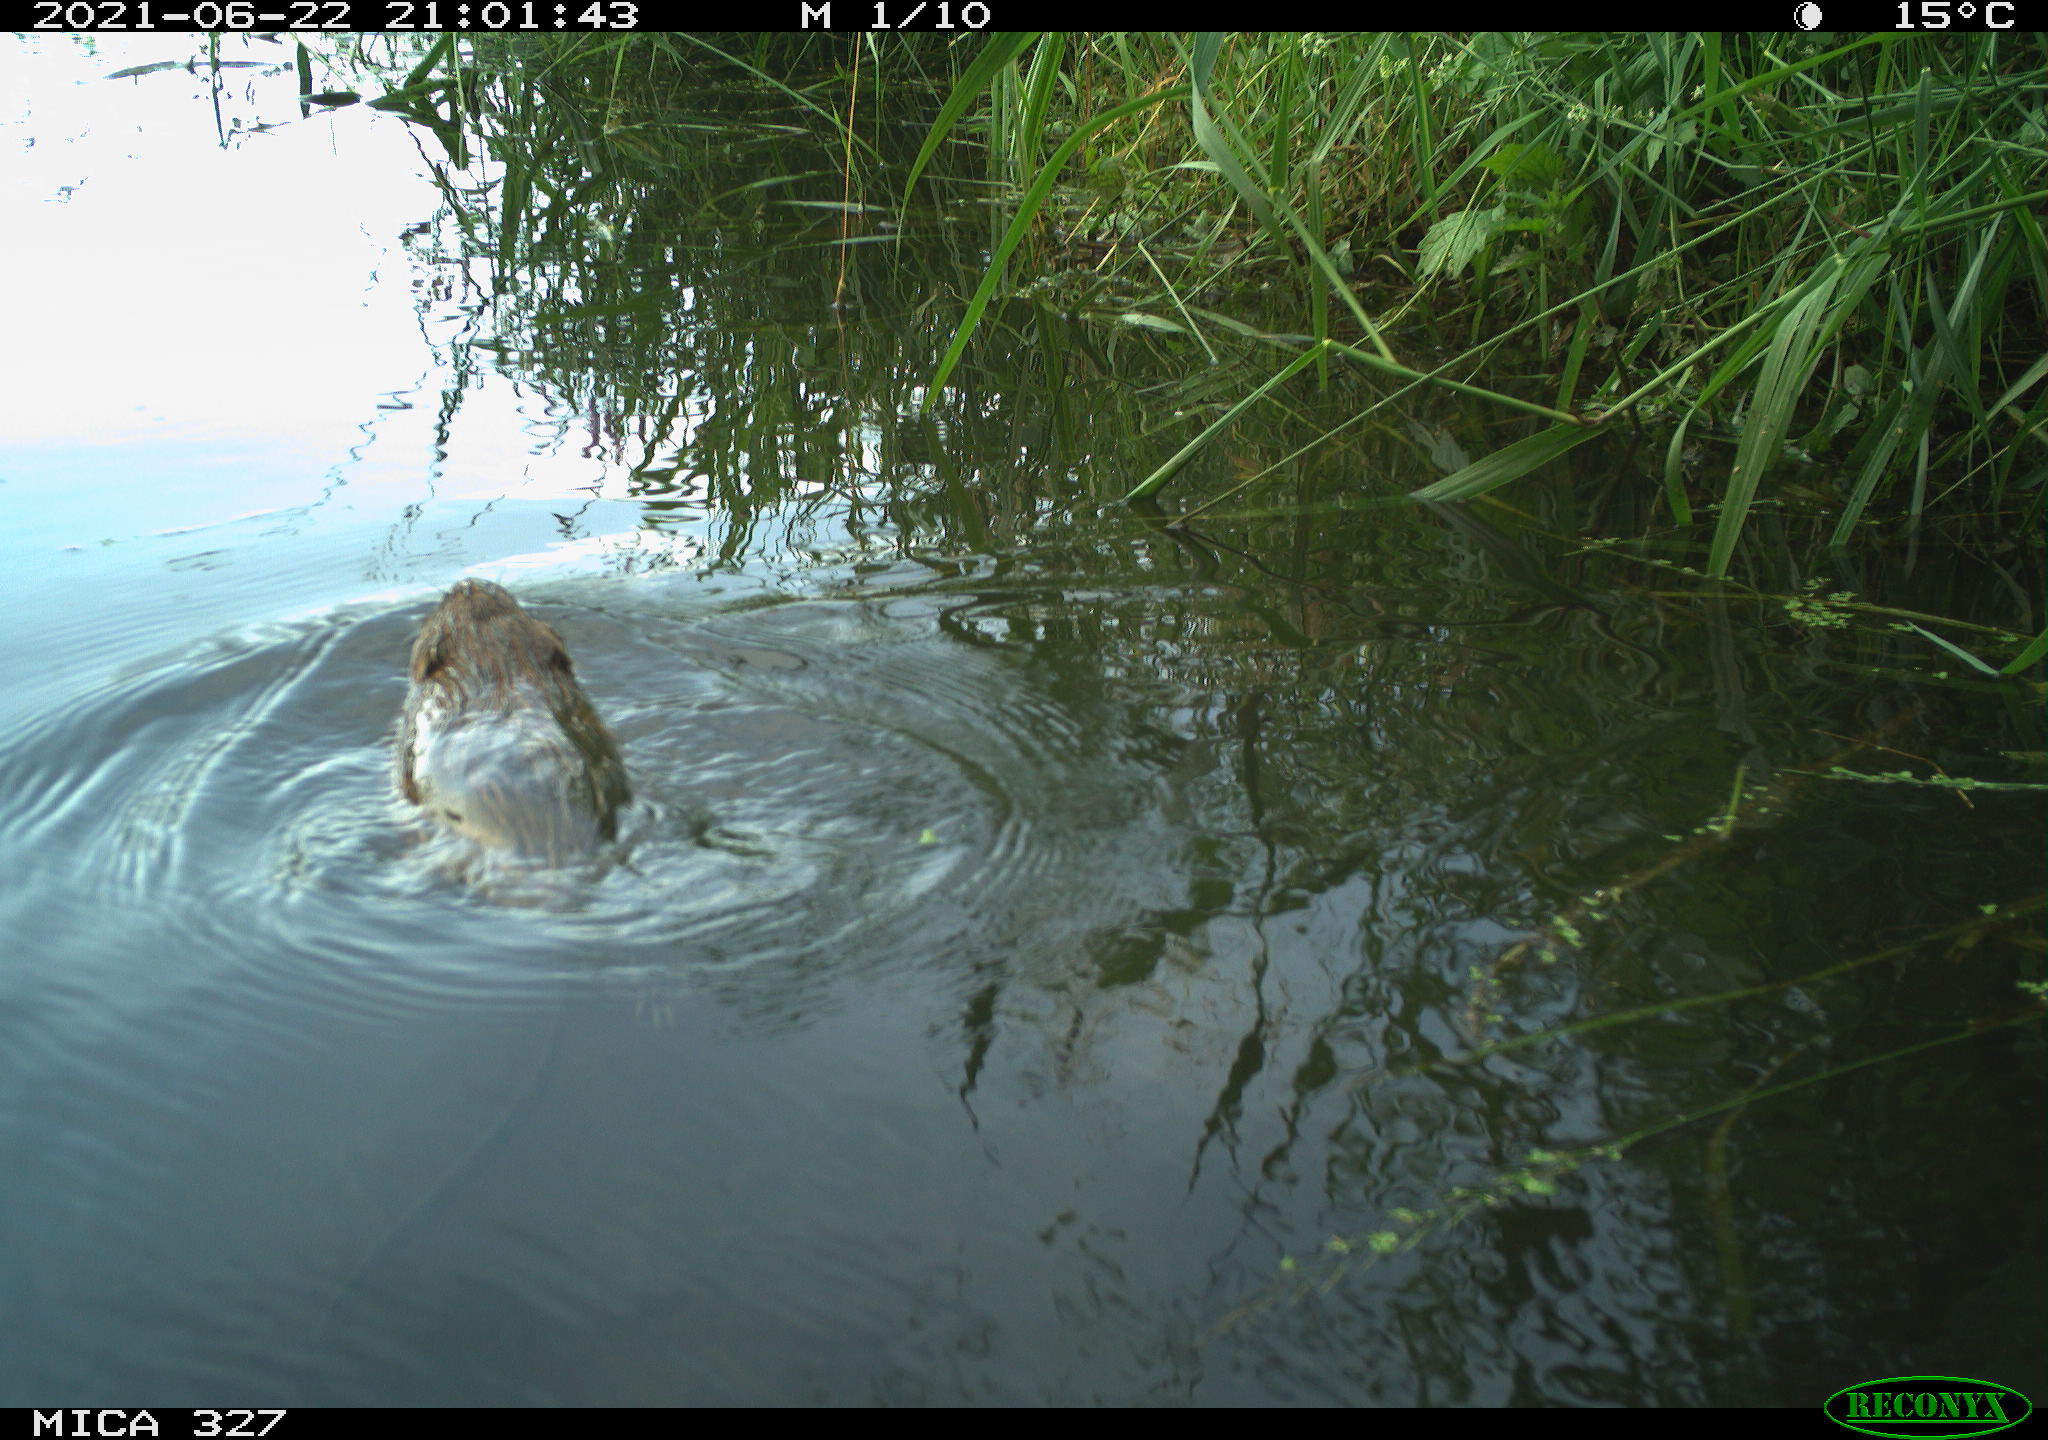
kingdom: Animalia
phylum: Chordata
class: Mammalia
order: Rodentia
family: Cricetidae
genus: Ondatra
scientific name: Ondatra zibethicus
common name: Muskrat
